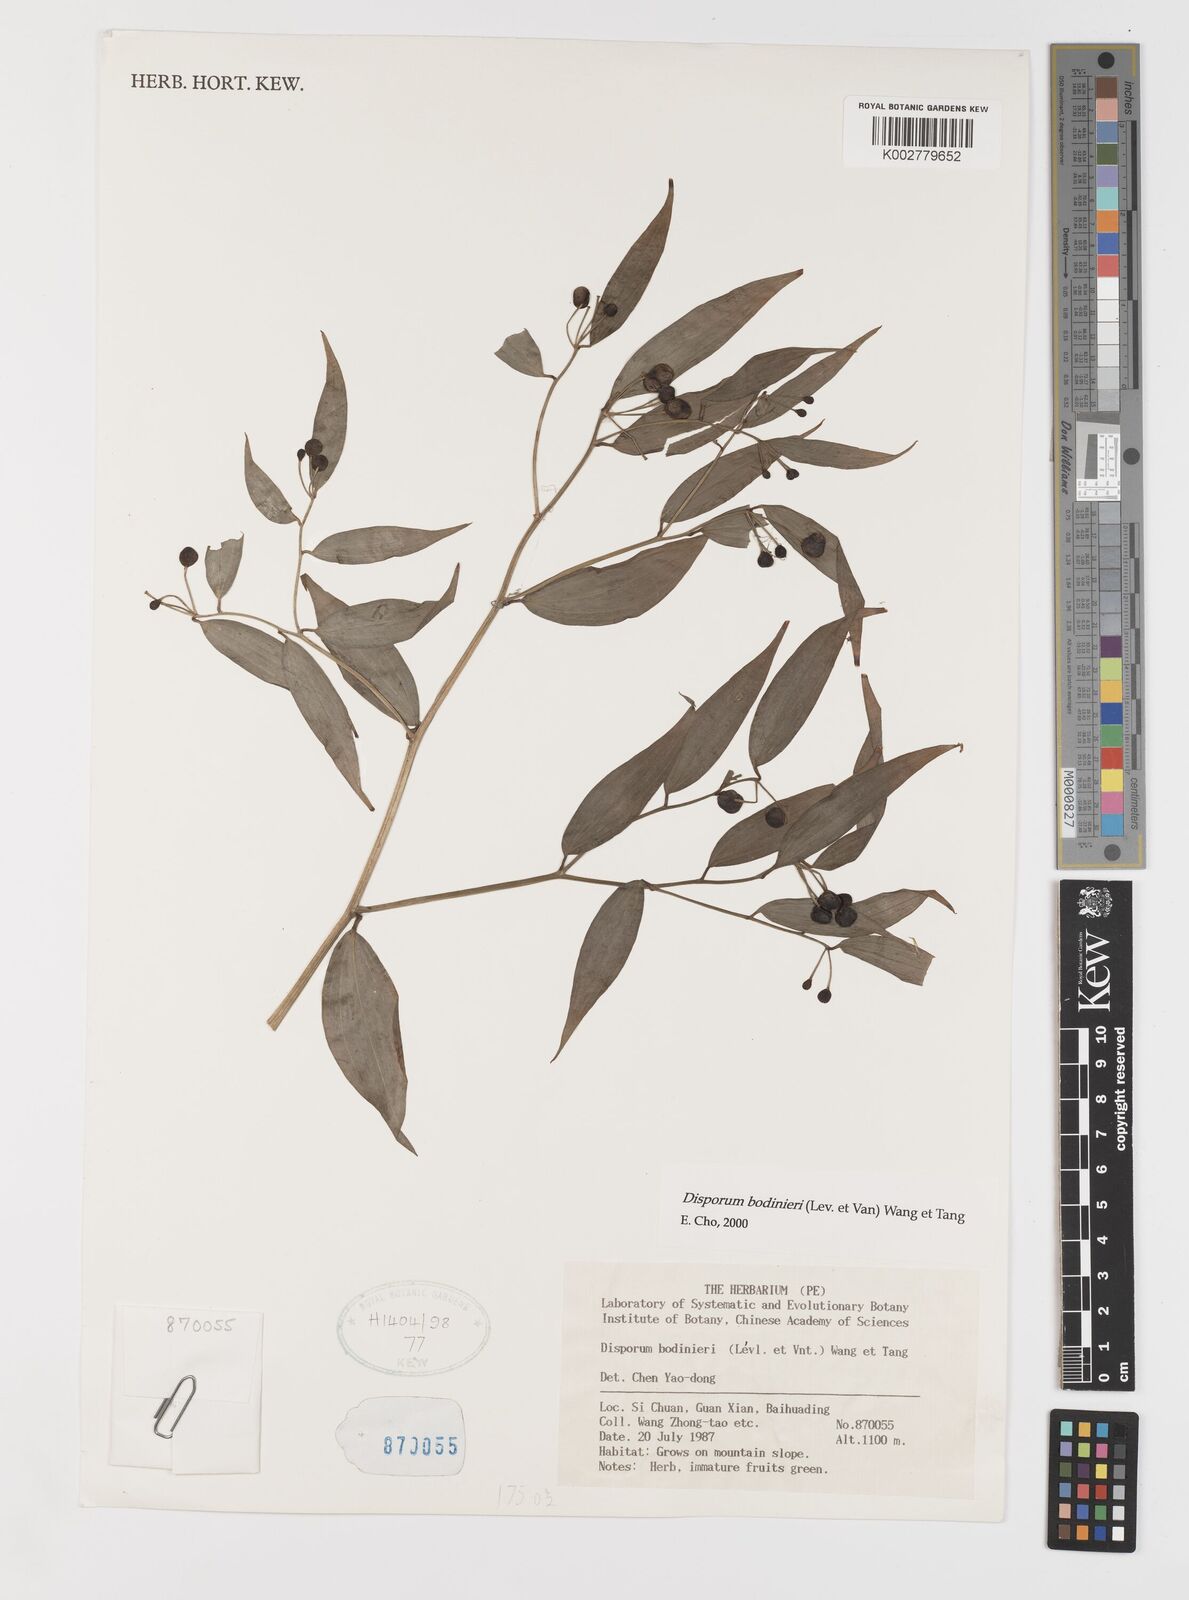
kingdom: Plantae
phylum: Tracheophyta
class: Liliopsida
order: Liliales
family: Colchicaceae
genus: Disporum
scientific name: Disporum bodinieri
